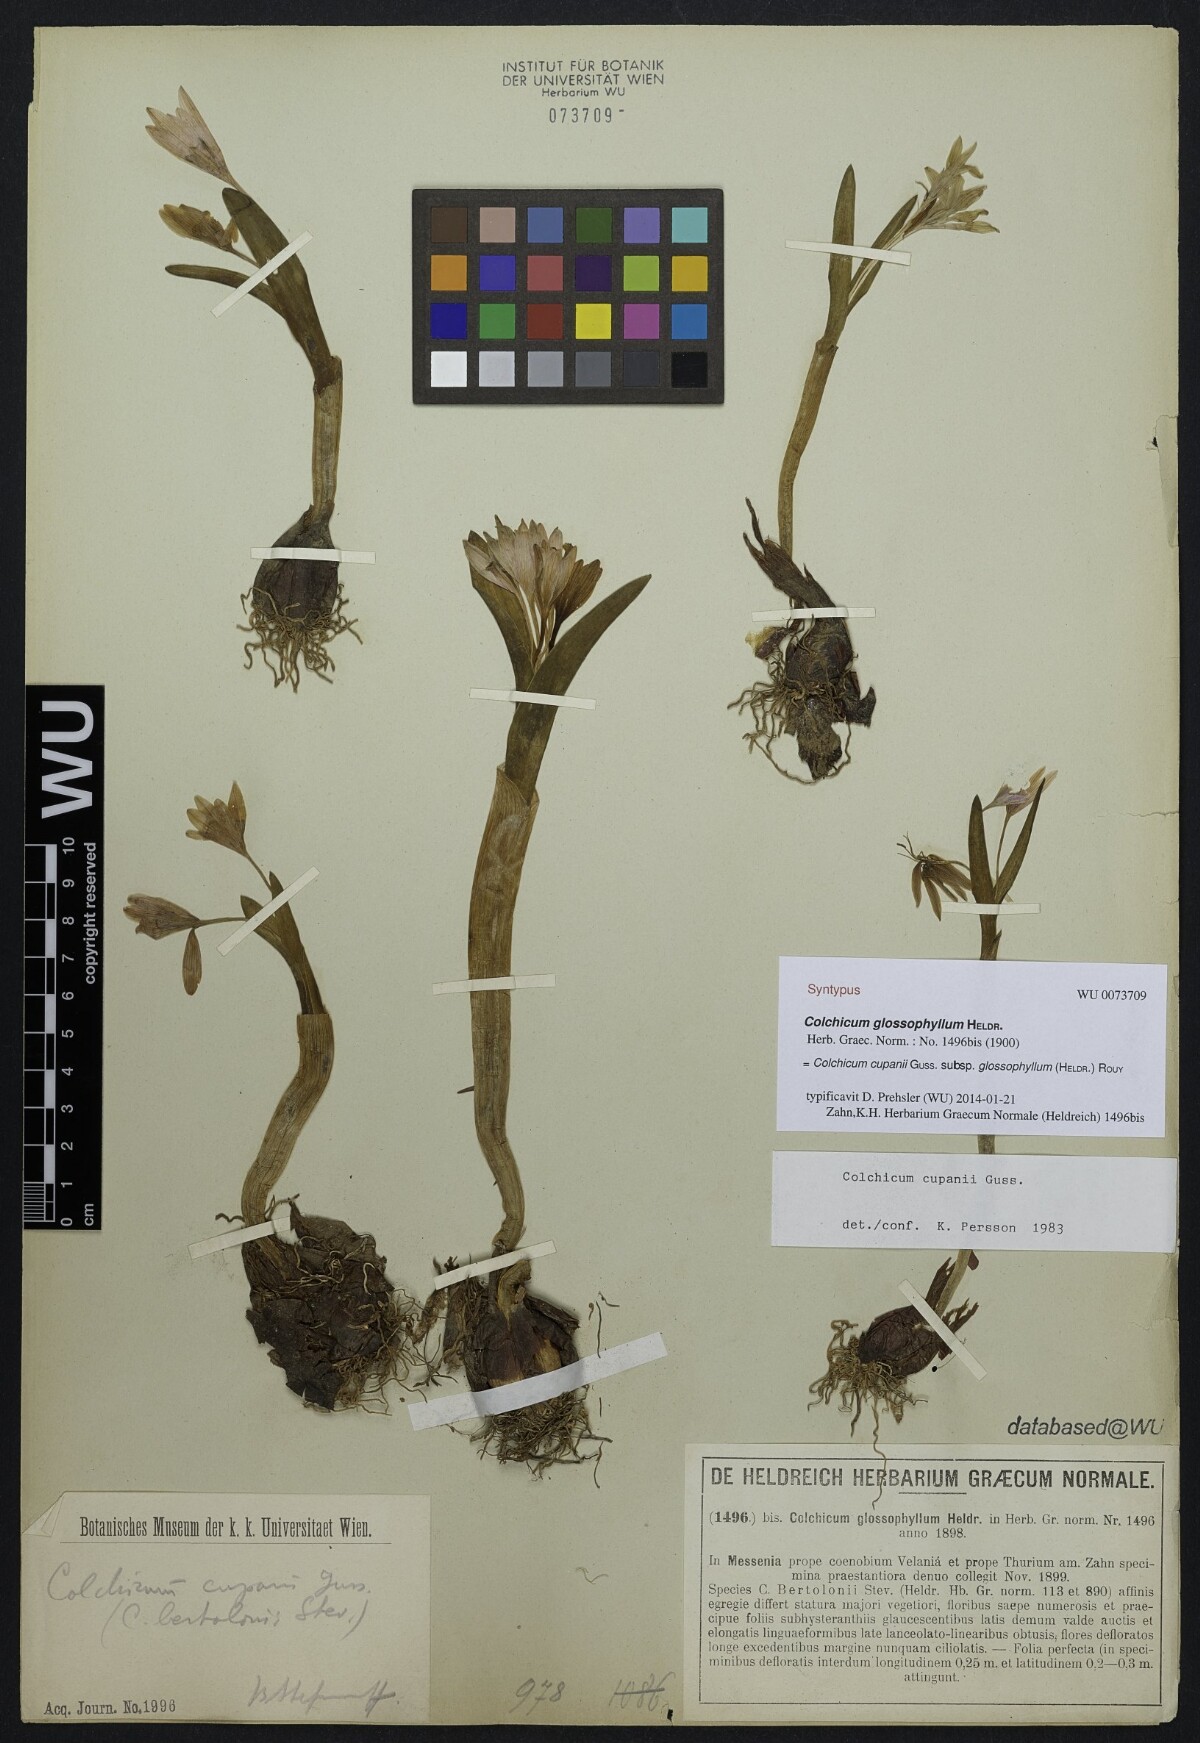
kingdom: Plantae
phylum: Tracheophyta
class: Liliopsida
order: Liliales
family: Colchicaceae
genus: Colchicum
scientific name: Colchicum cupanii
